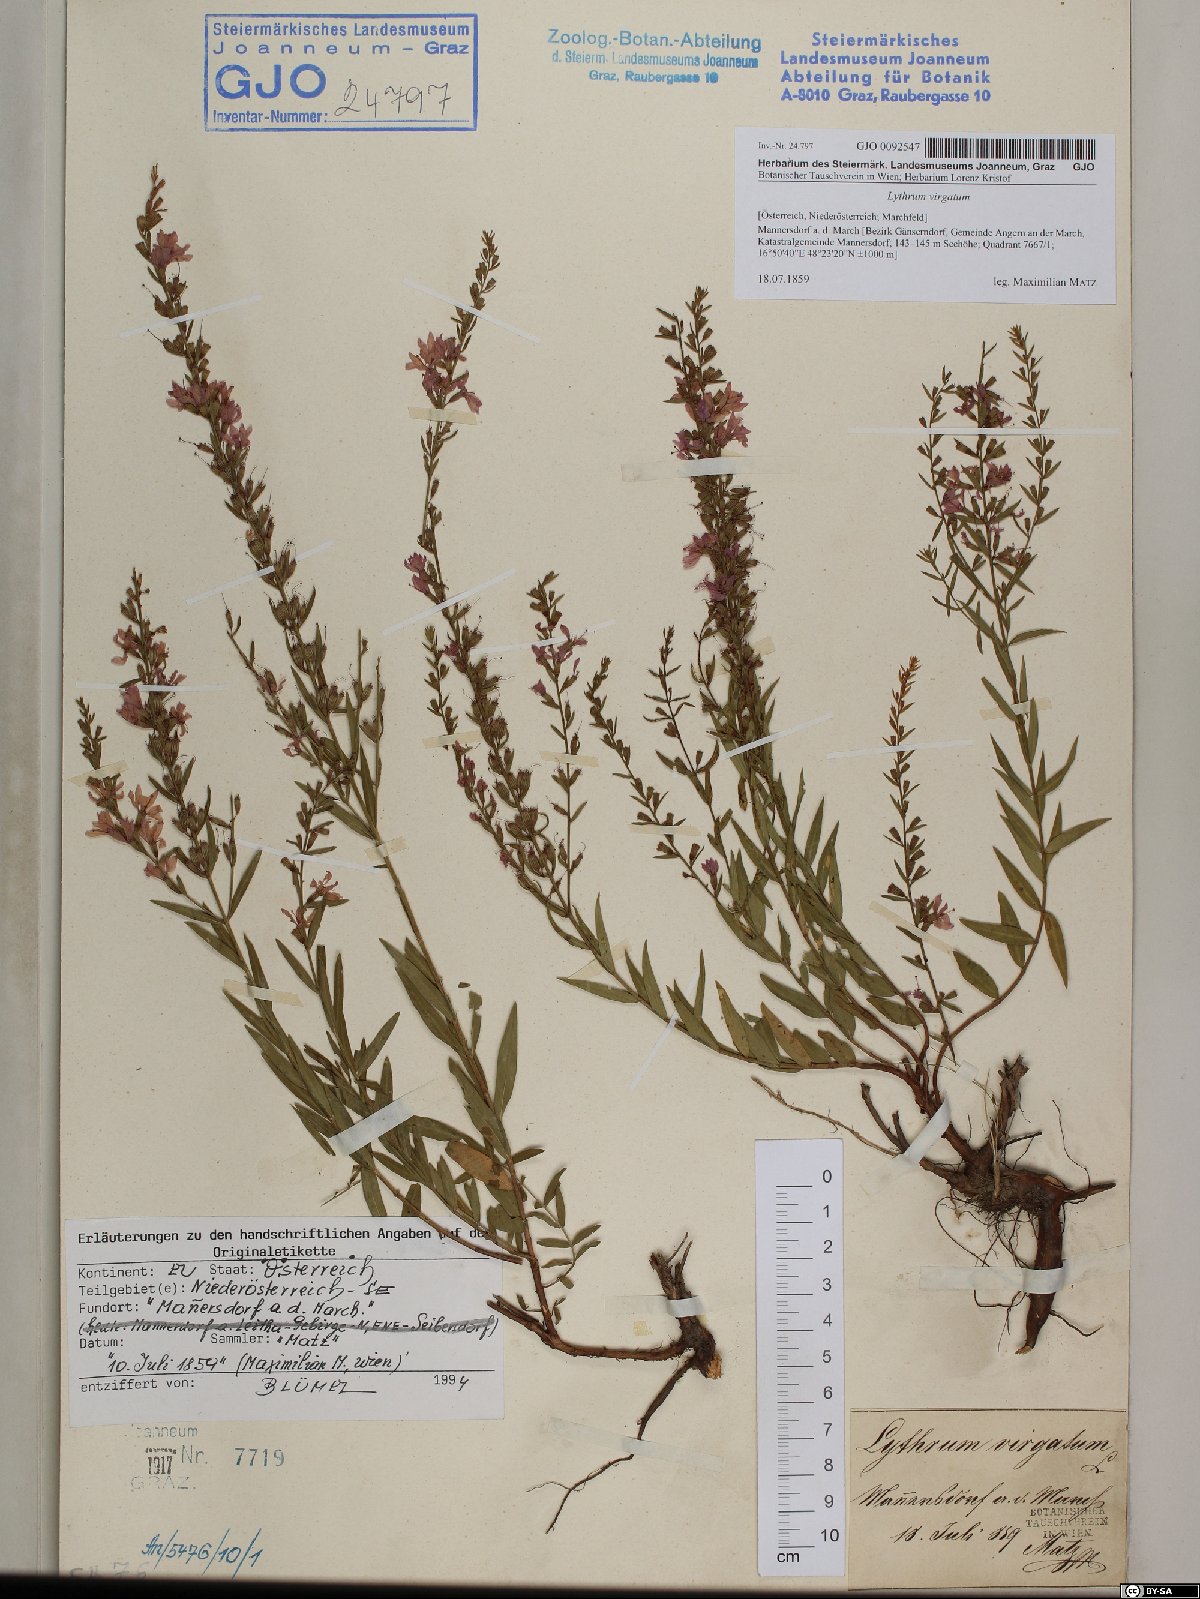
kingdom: Plantae
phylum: Tracheophyta
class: Magnoliopsida
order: Myrtales
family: Lythraceae
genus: Lythrum
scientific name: Lythrum virgatum
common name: European wand loosestrife
